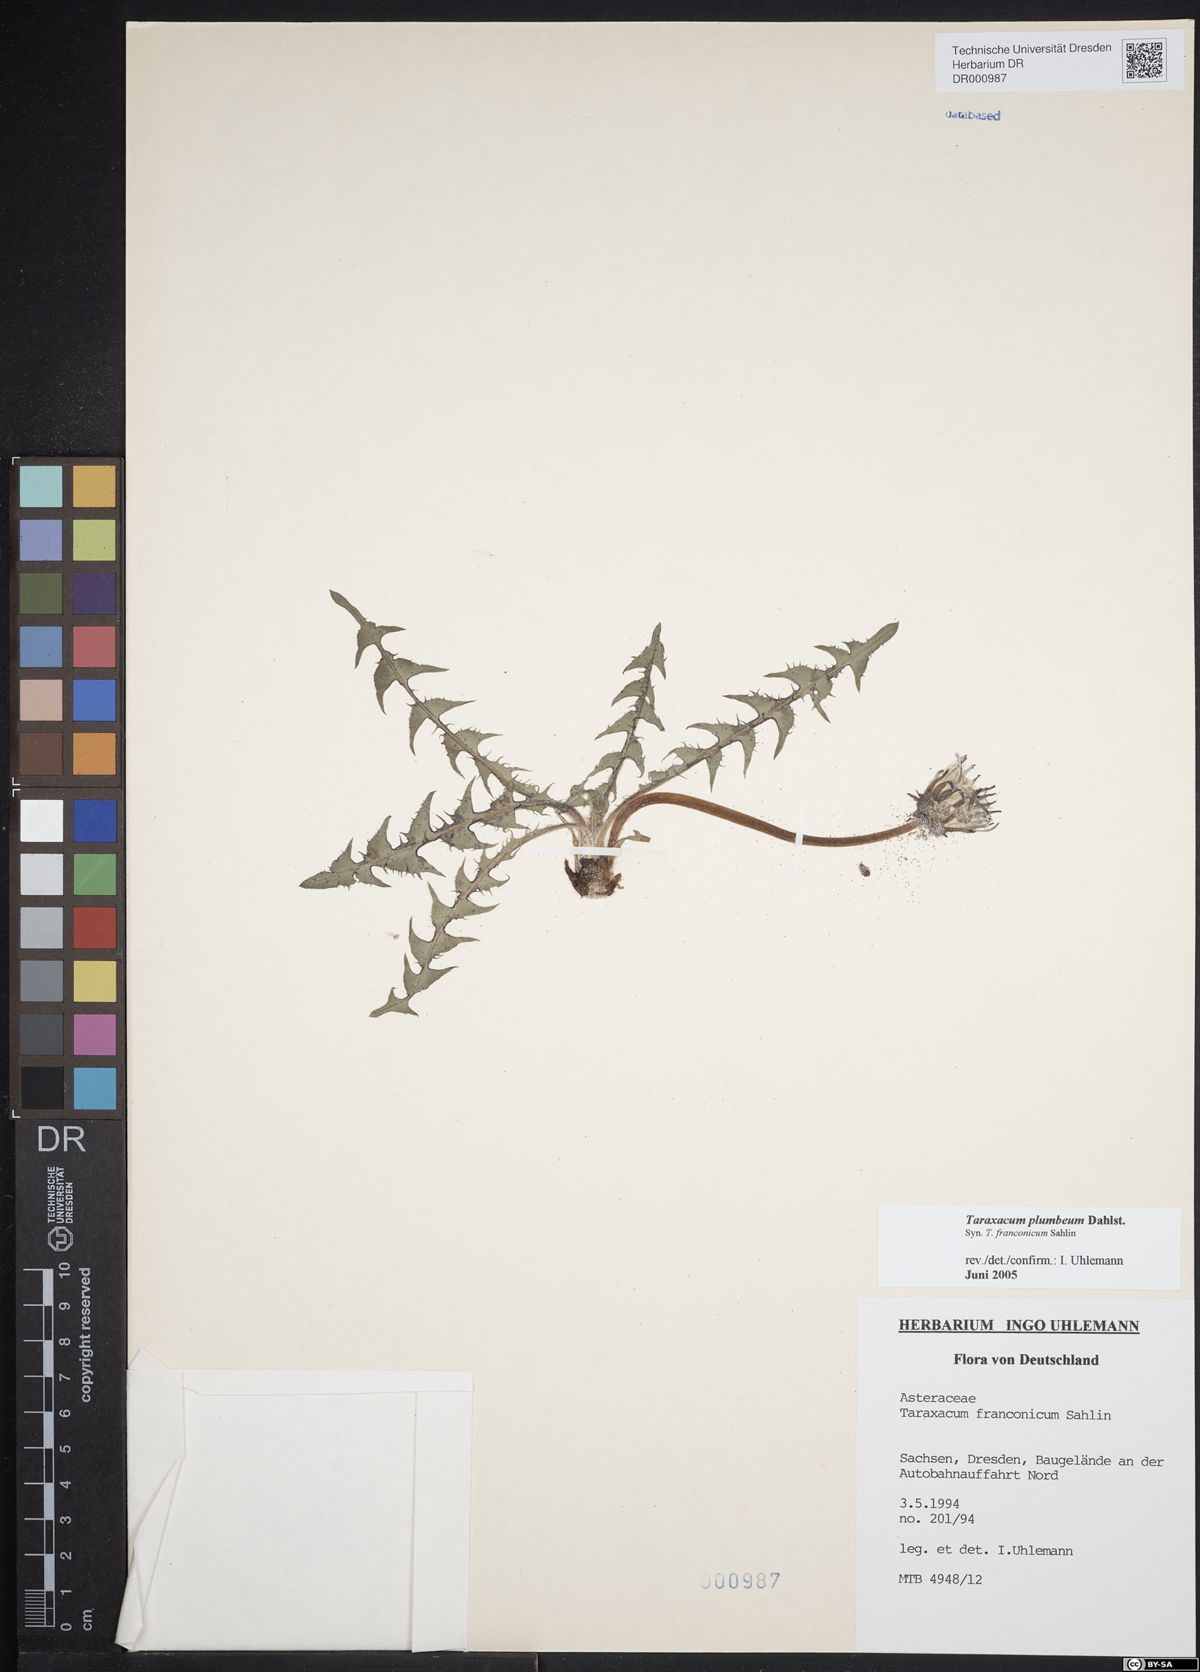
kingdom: Plantae
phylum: Tracheophyta
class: Magnoliopsida
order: Asterales
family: Asteraceae
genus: Taraxacum
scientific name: Taraxacum plumbeum
